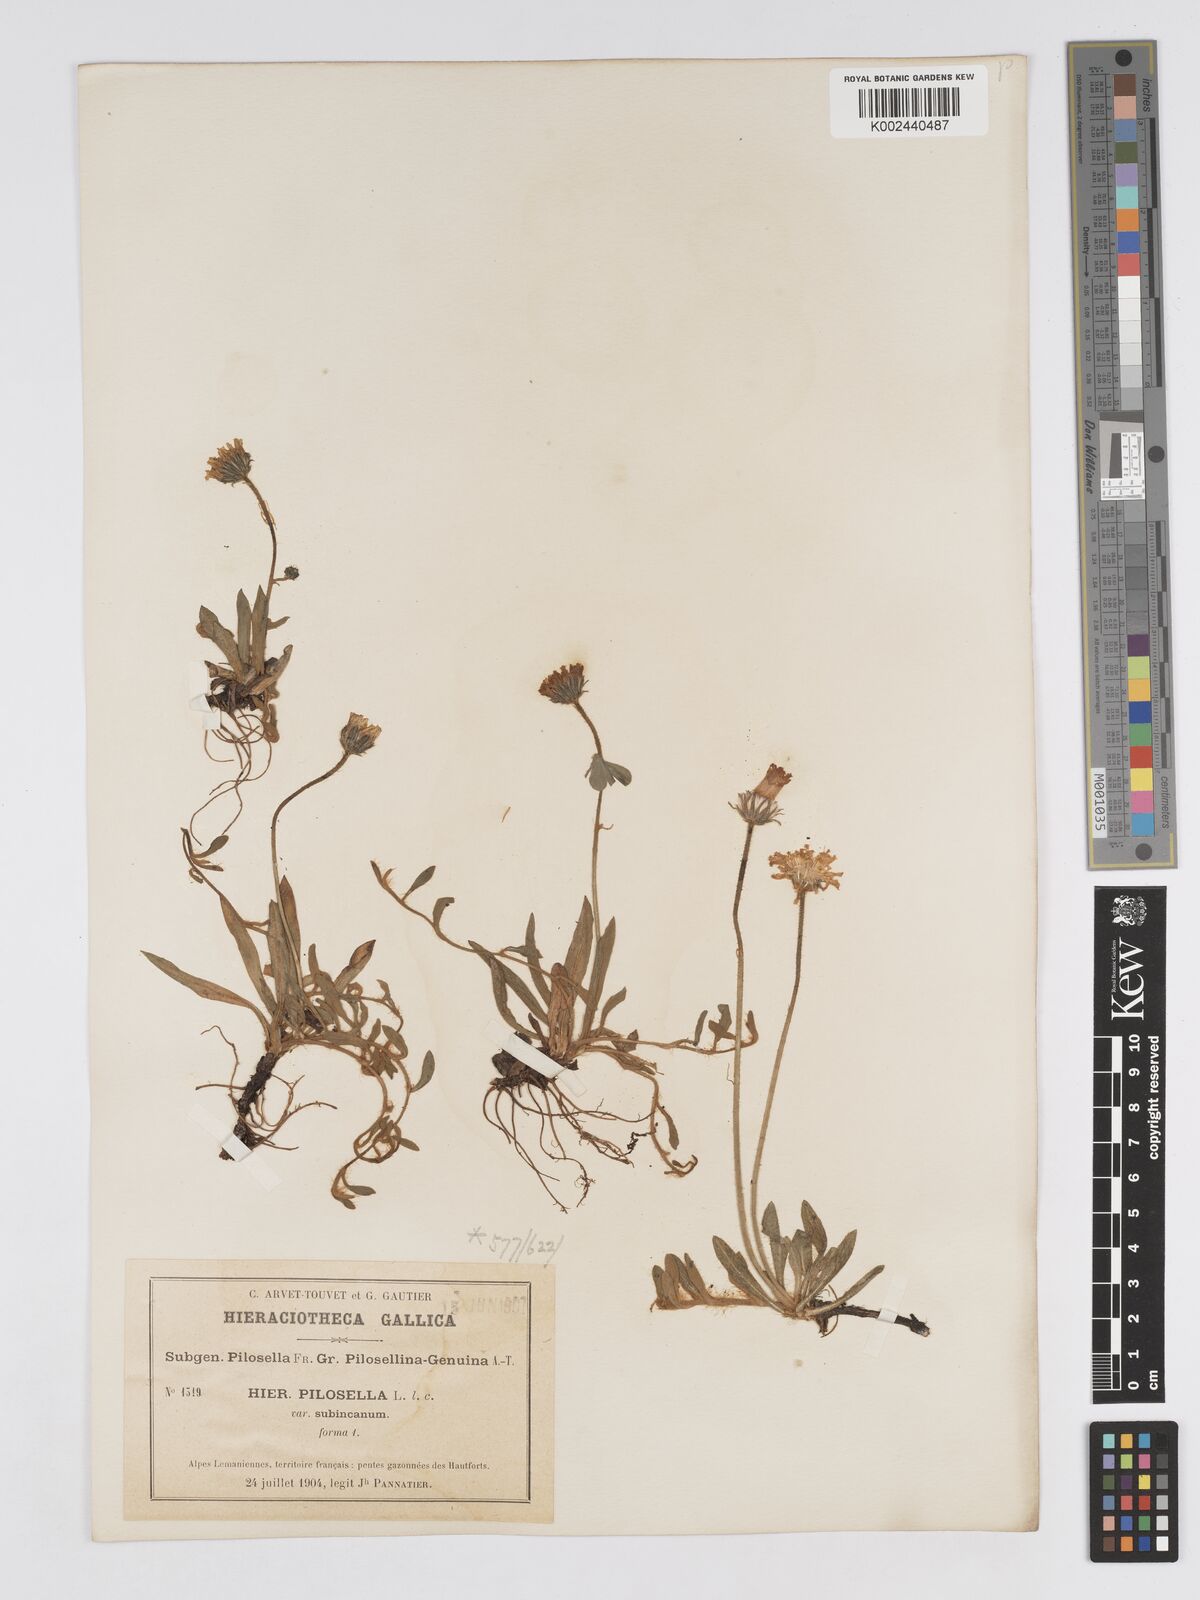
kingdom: Plantae
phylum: Tracheophyta
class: Magnoliopsida
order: Asterales
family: Asteraceae
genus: Pilosella
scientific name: Pilosella velutina
